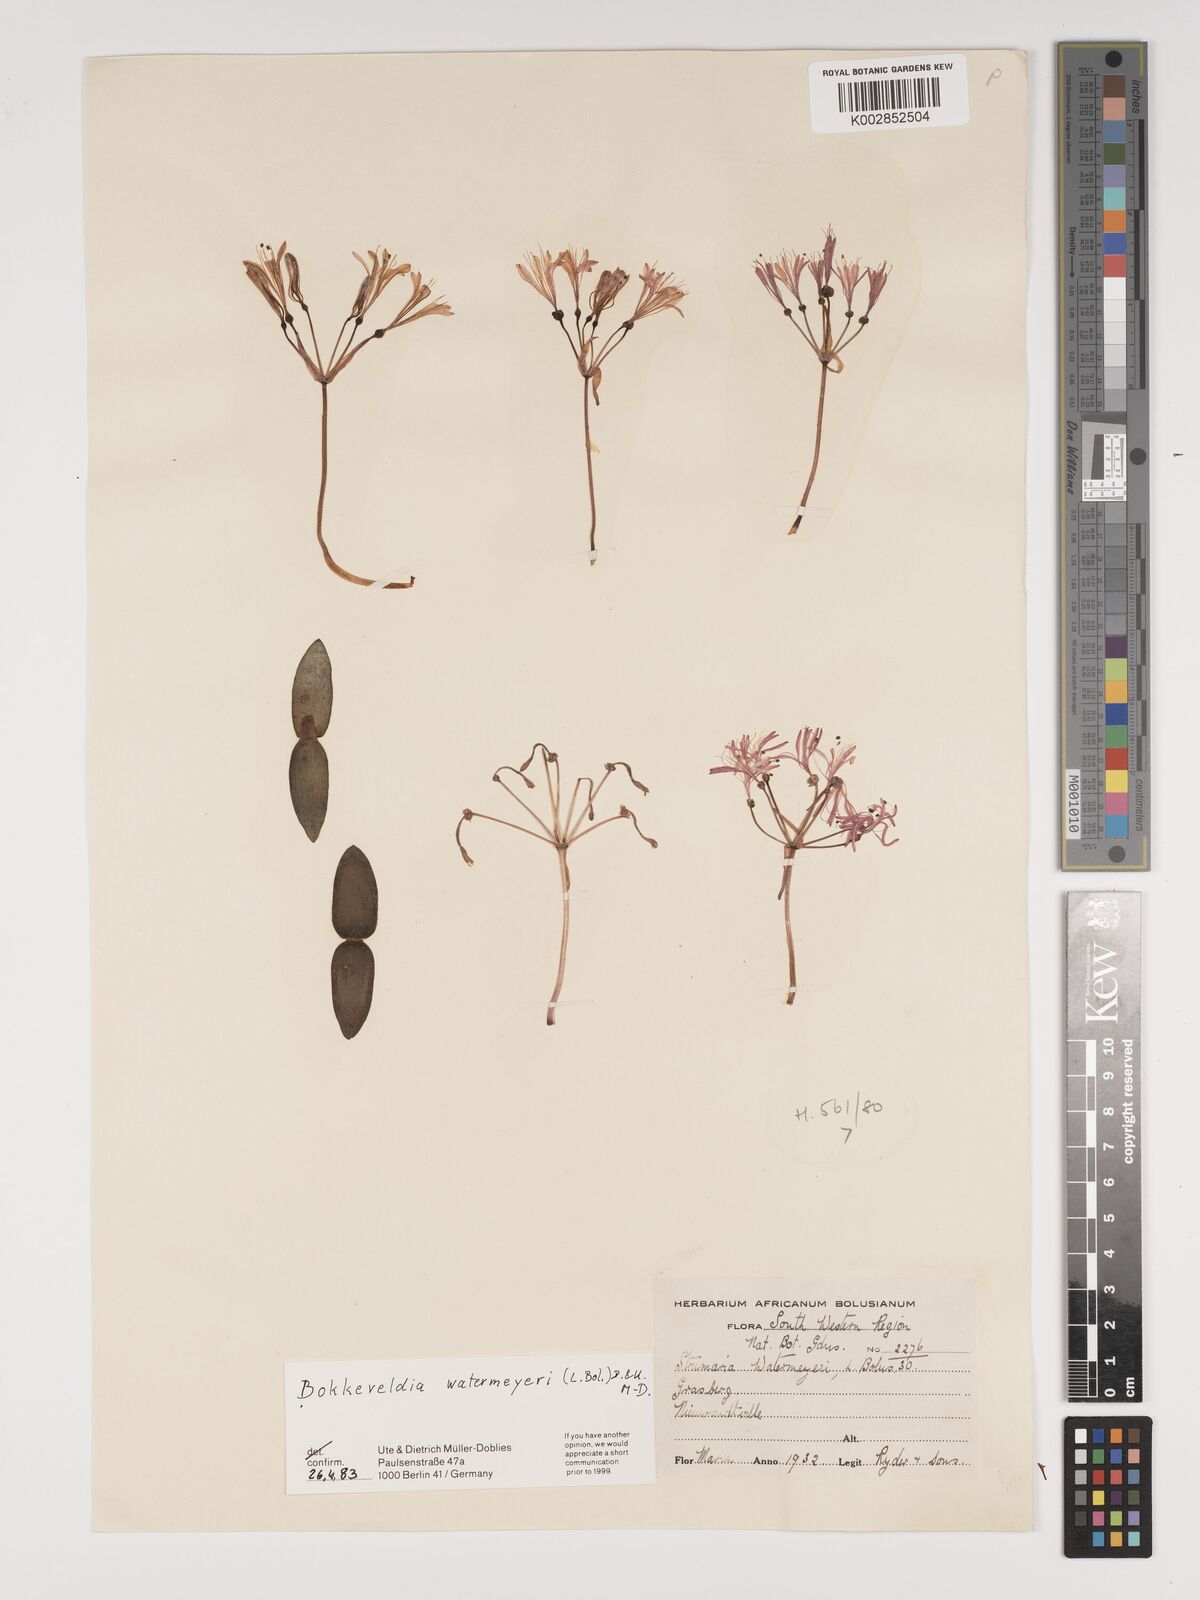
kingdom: Plantae
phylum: Tracheophyta
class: Liliopsida
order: Asparagales
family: Amaryllidaceae
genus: Strumaria
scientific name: Strumaria watermeyeri
